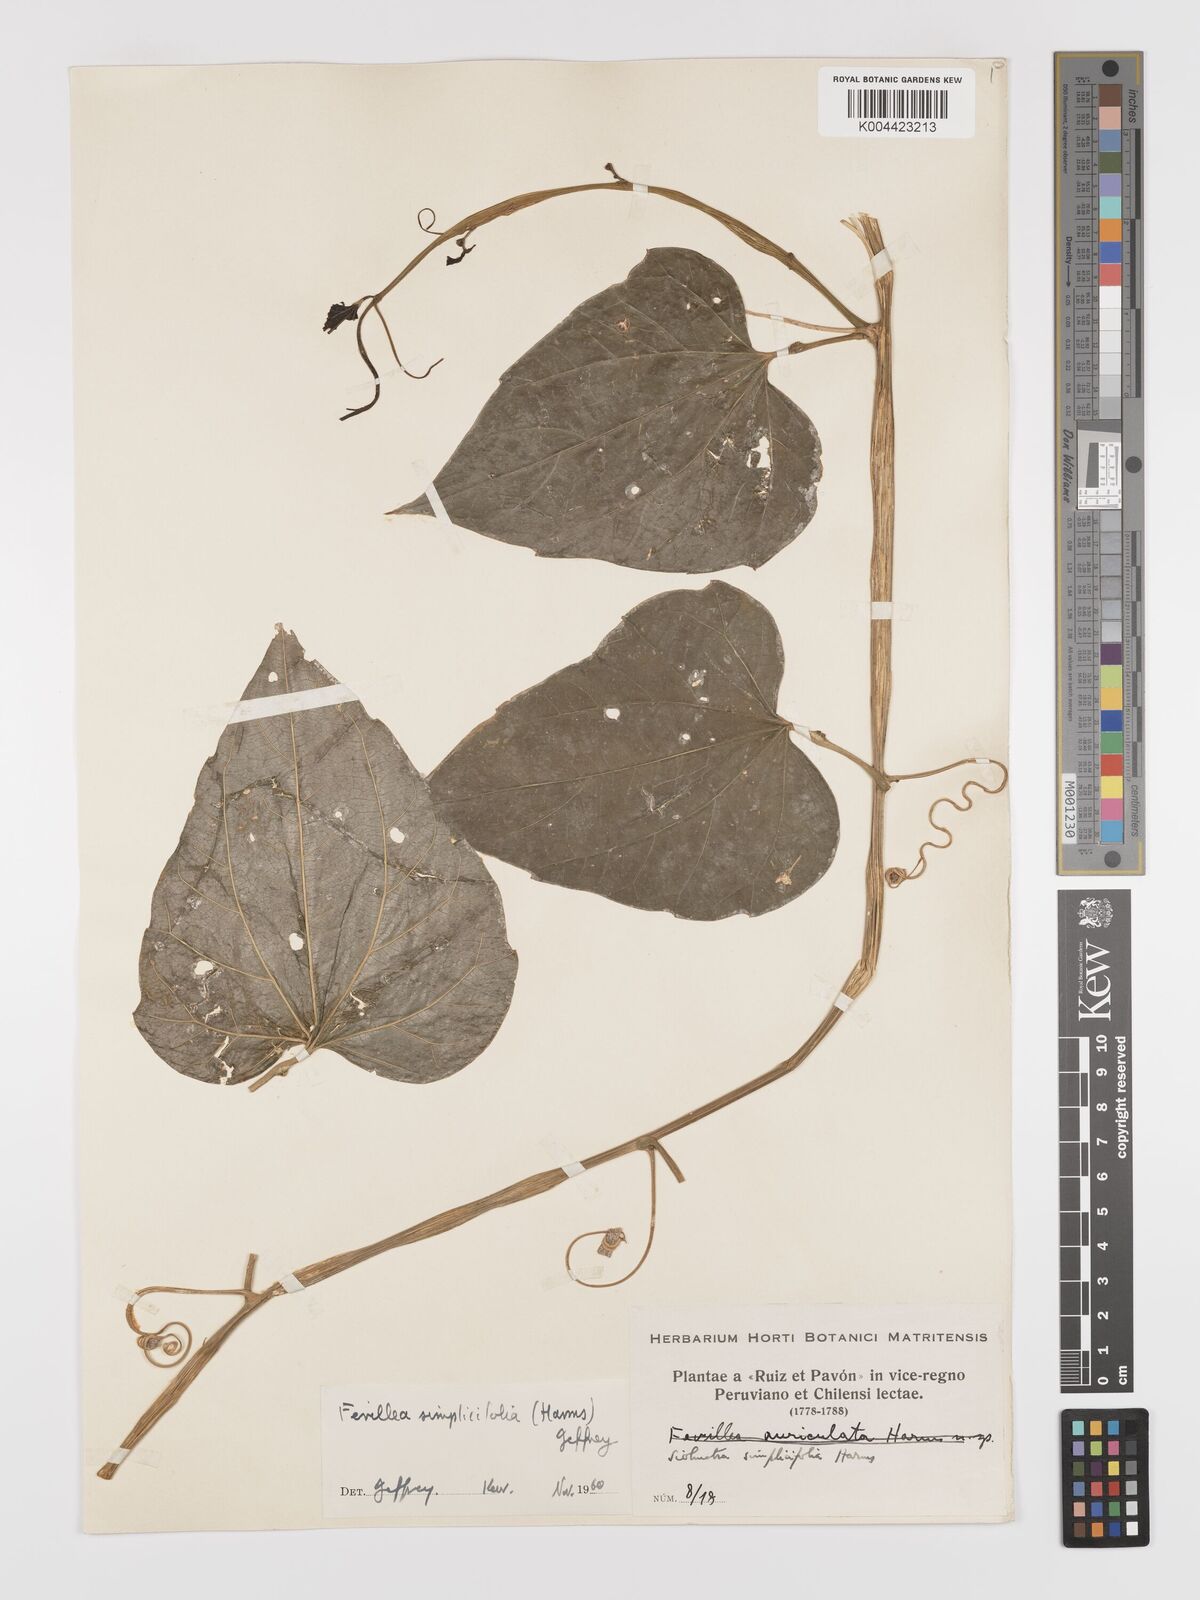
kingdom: Plantae
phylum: Tracheophyta
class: Magnoliopsida
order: Cucurbitales
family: Cucurbitaceae
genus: Fevillea
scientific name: Fevillea pedatifolia
